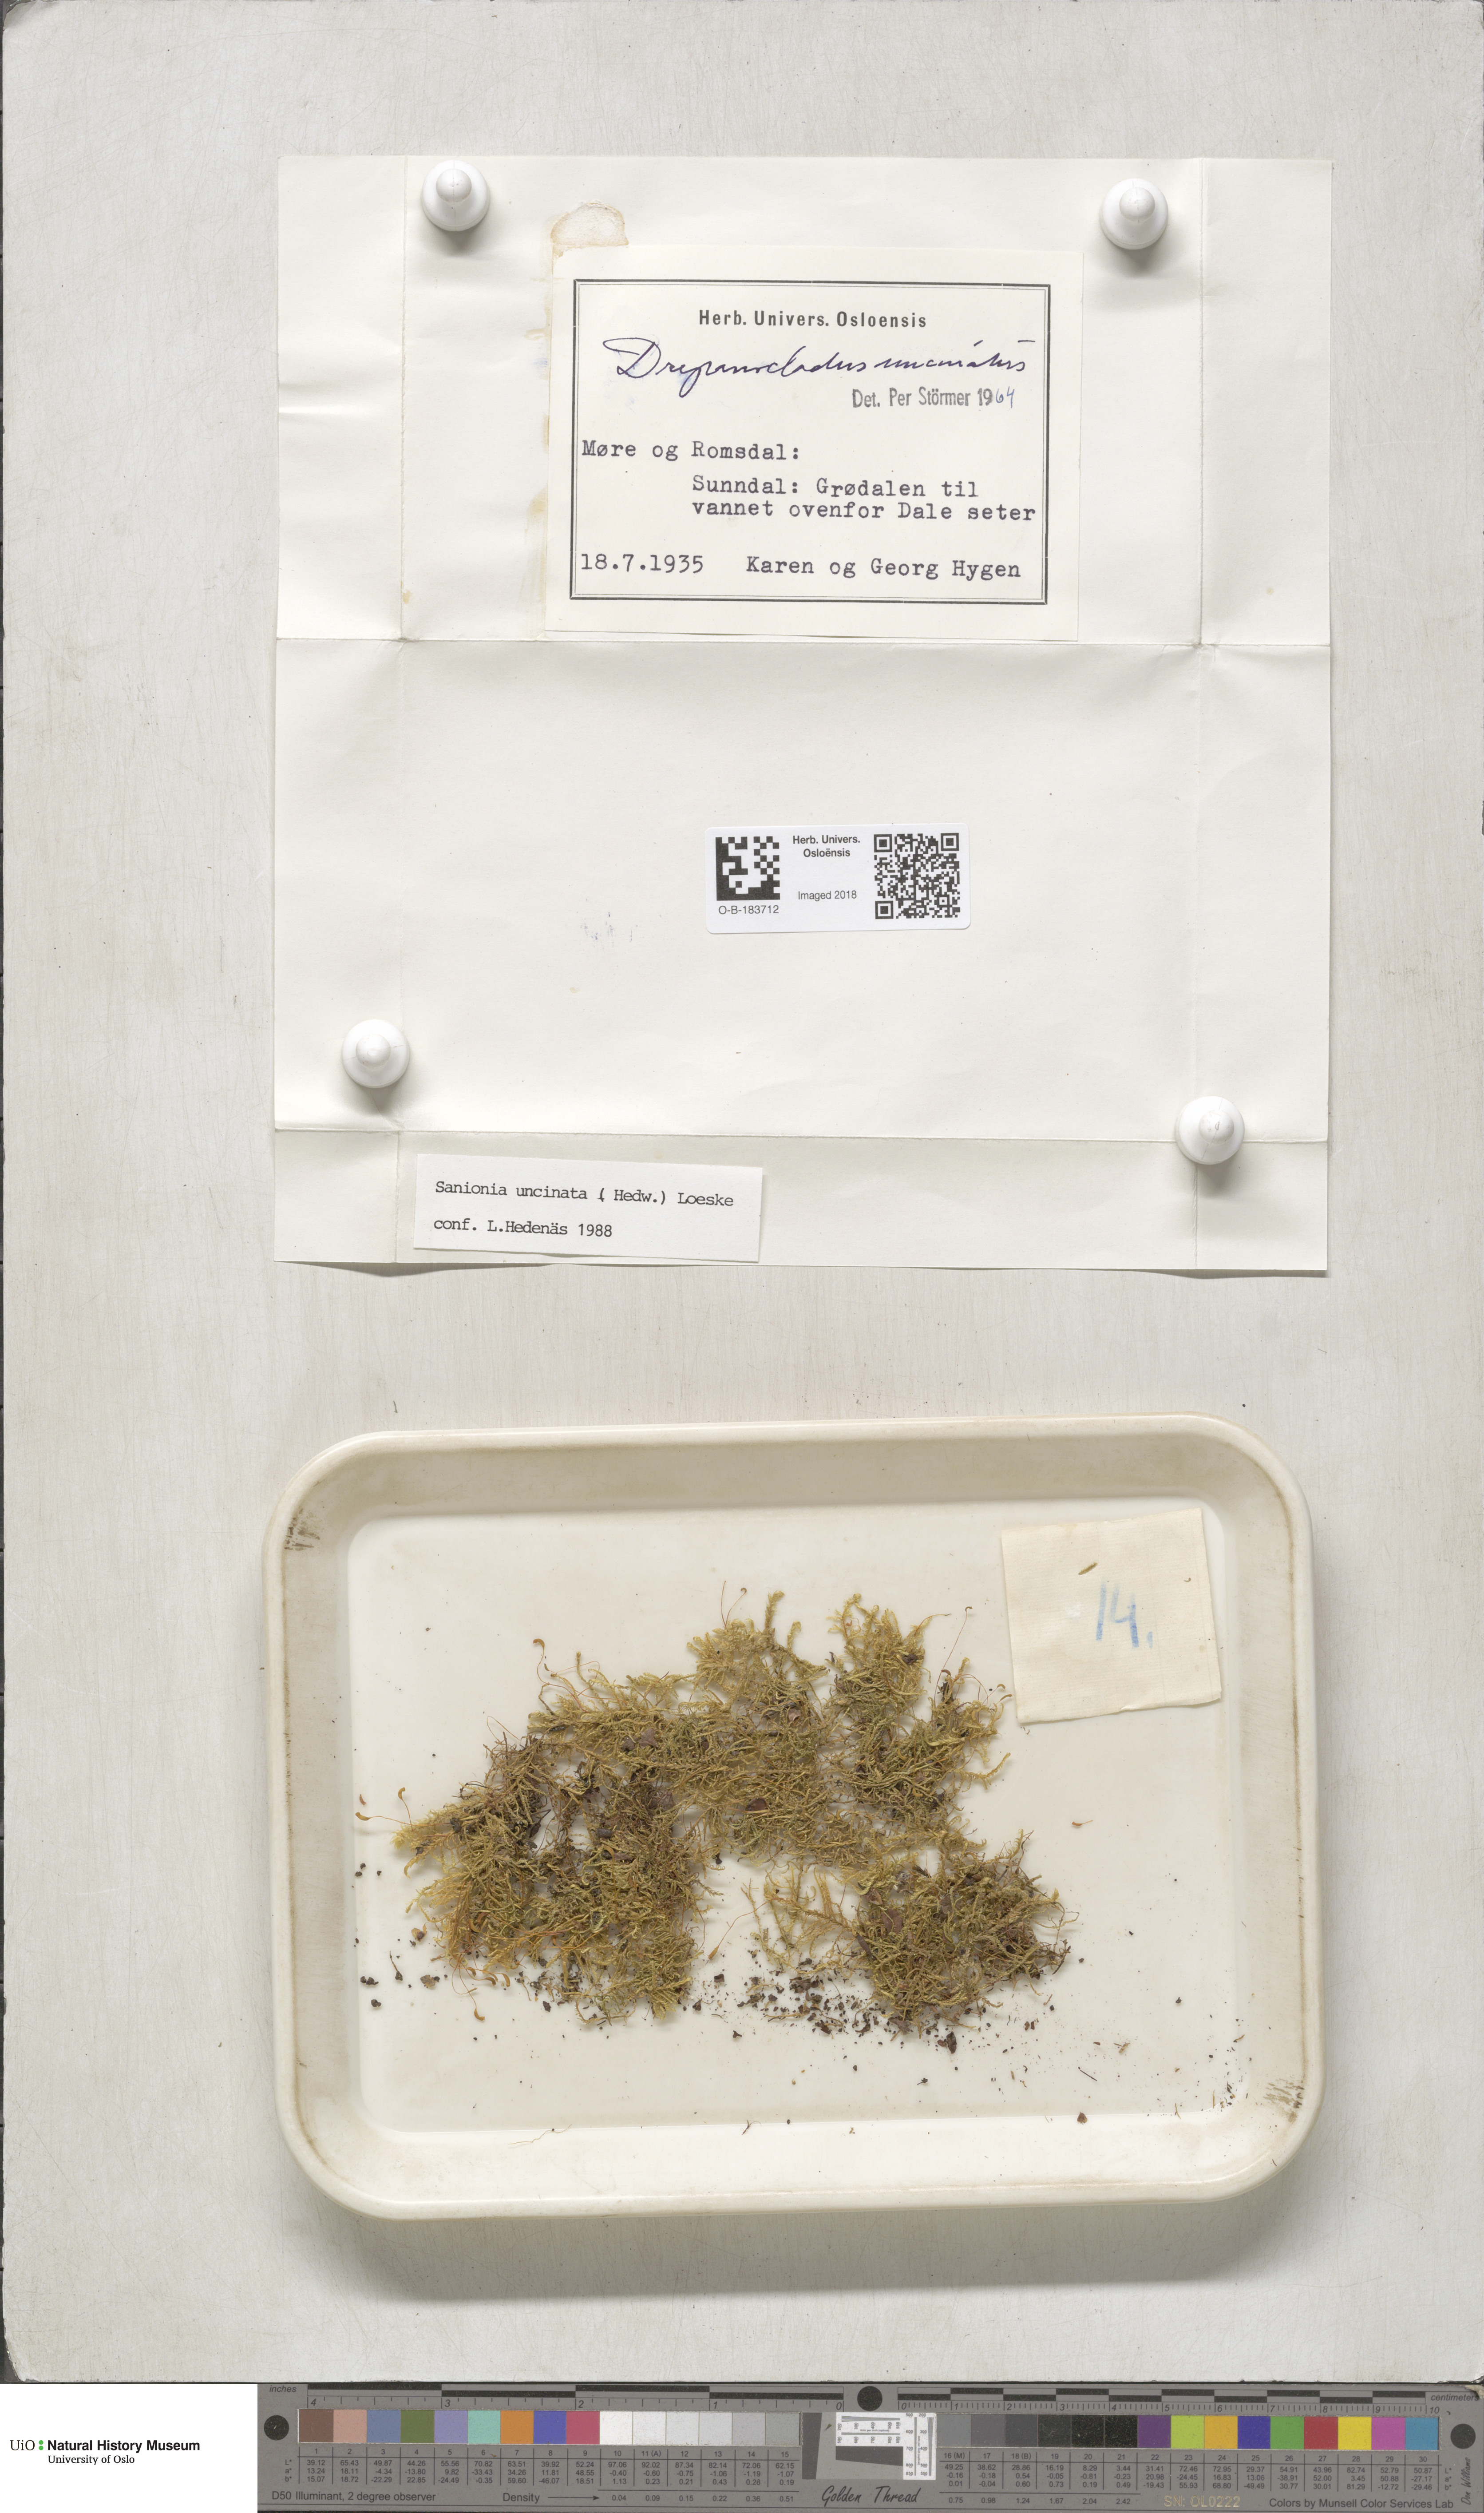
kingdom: Plantae
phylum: Bryophyta
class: Bryopsida
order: Hypnales
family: Scorpidiaceae
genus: Sanionia
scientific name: Sanionia uncinata
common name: Sickle moss
